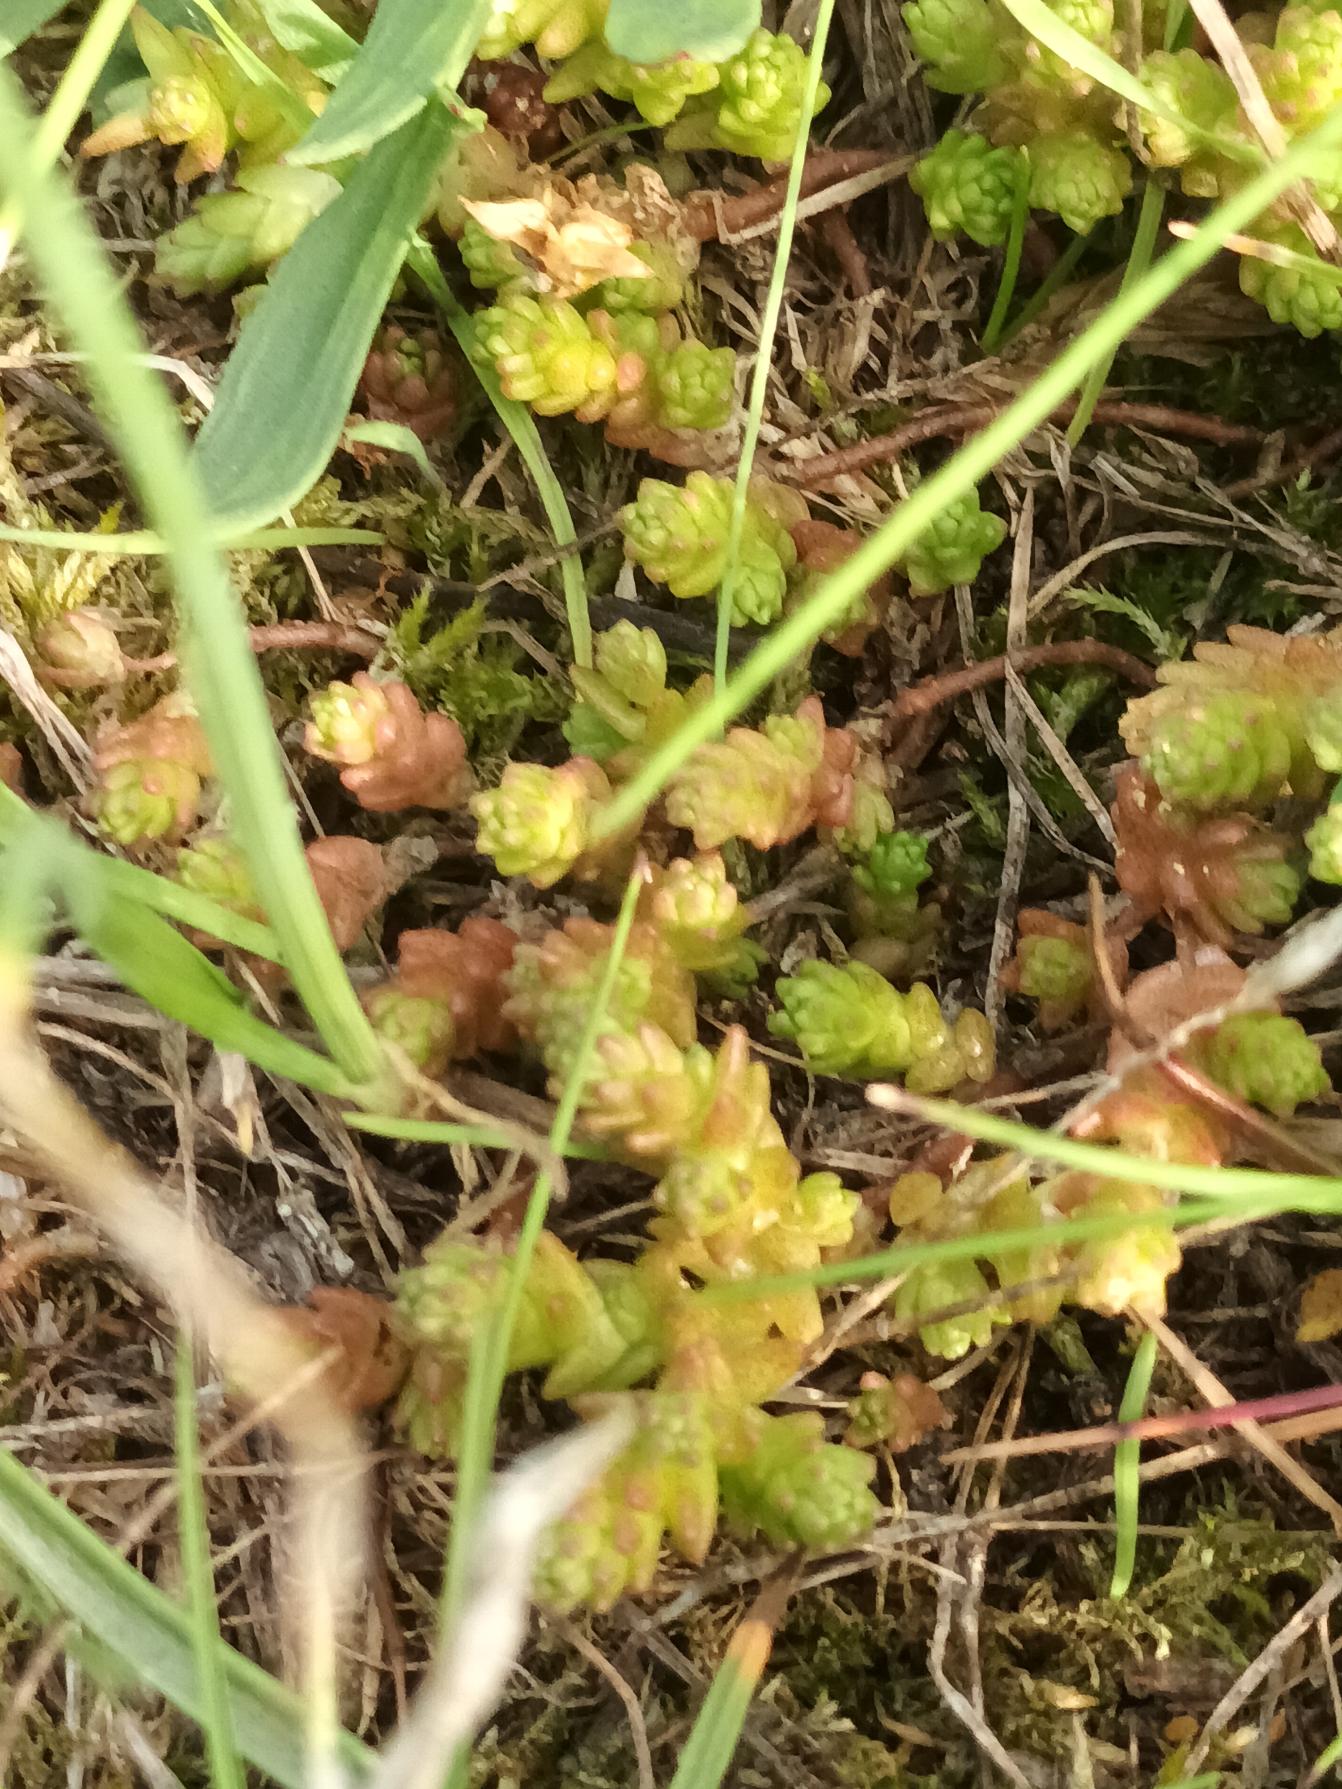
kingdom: Plantae
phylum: Tracheophyta
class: Magnoliopsida
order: Saxifragales
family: Crassulaceae
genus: Sedum
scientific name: Sedum acre
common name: Bidende stenurt
